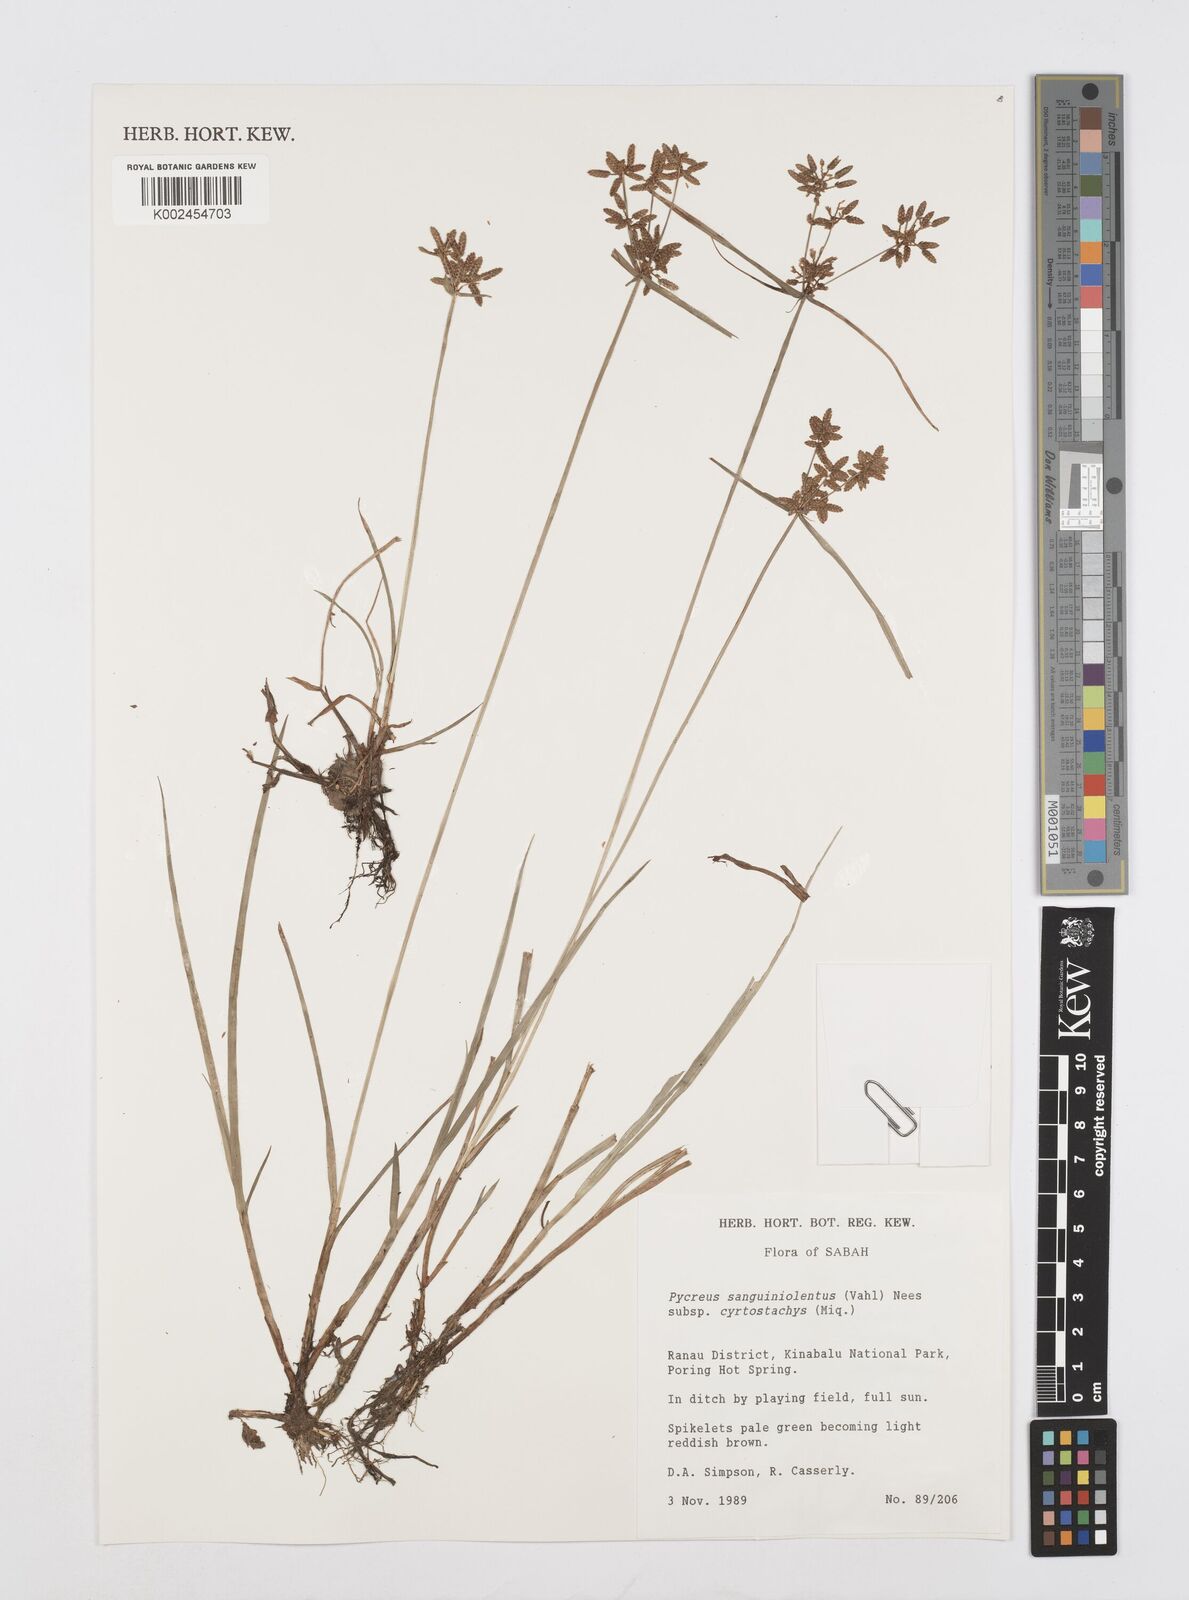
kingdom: Plantae
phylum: Tracheophyta
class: Liliopsida
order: Poales
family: Cyperaceae
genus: Cyperus
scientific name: Cyperus sanguinolentus
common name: Purpleglume flatsedge
